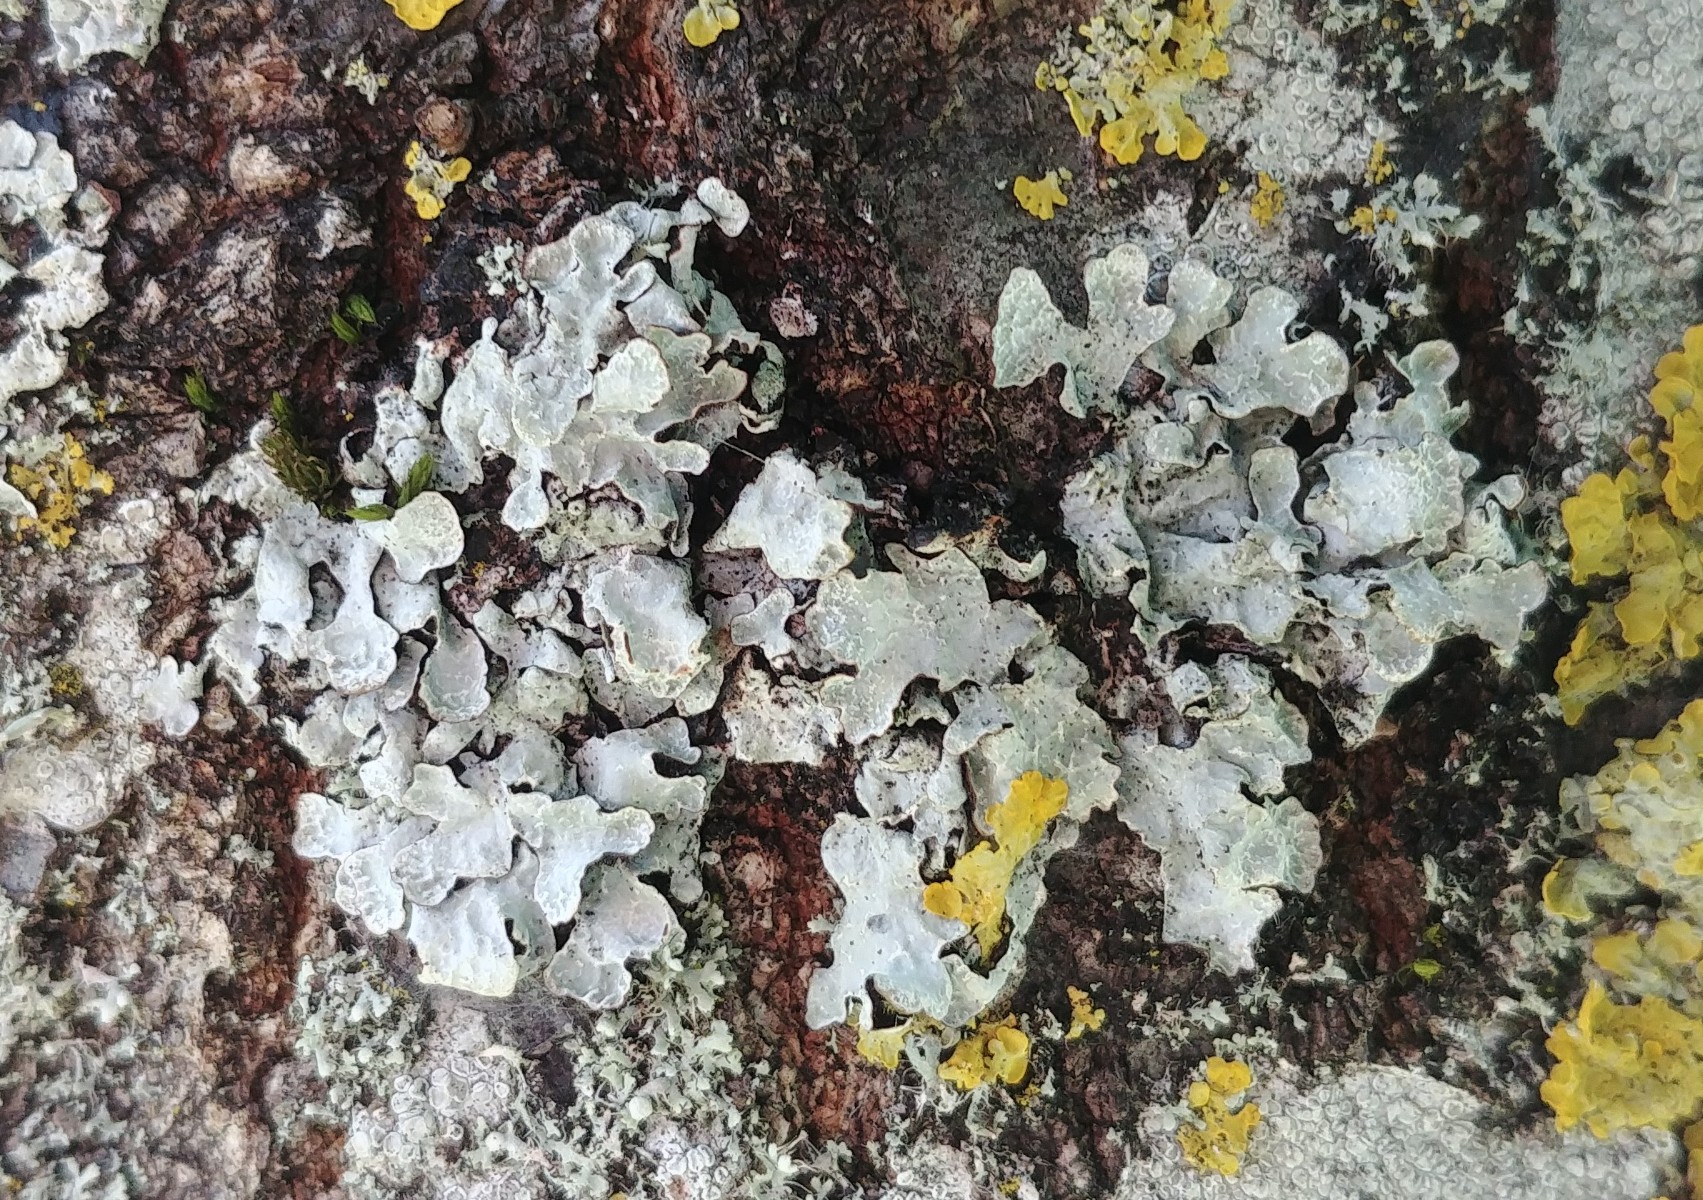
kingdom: Fungi
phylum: Ascomycota
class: Lecanoromycetes
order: Lecanorales
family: Parmeliaceae
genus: Parmelia
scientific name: Parmelia sulcata
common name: rynket skållav
